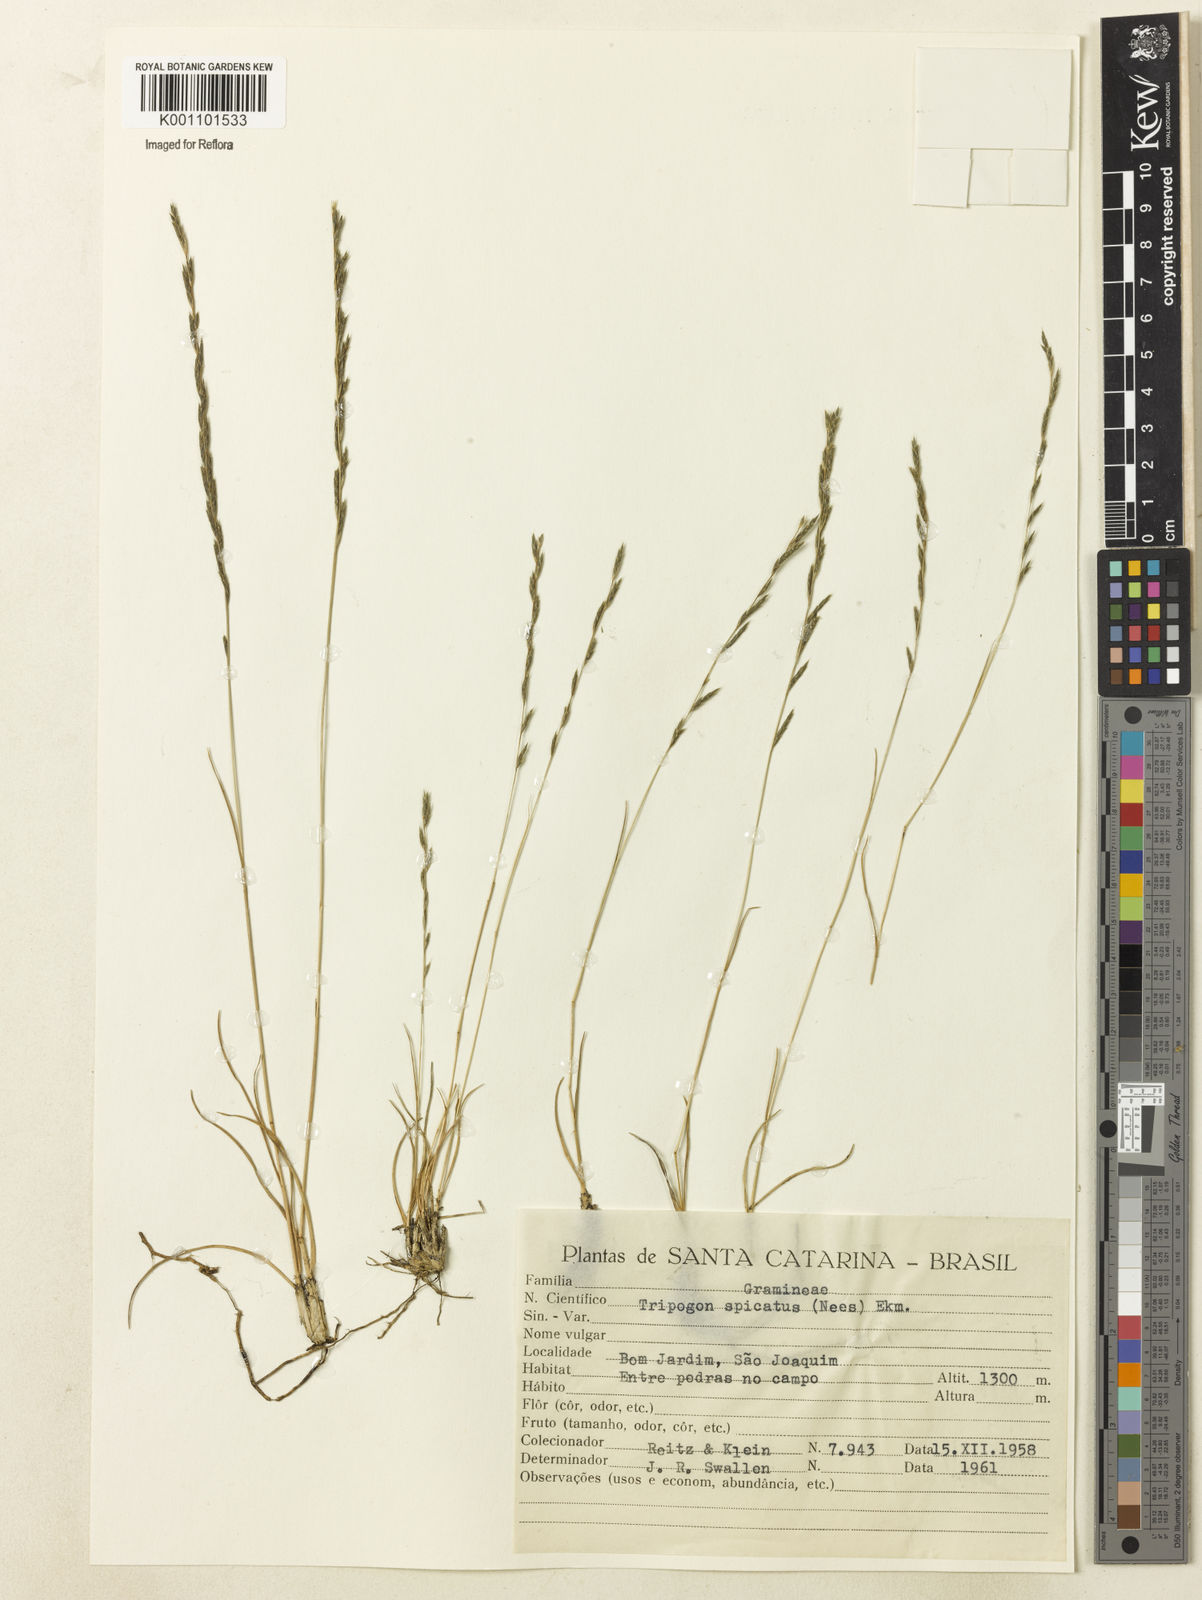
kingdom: Plantae
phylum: Tracheophyta
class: Liliopsida
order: Poales
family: Poaceae
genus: Tripogonella
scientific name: Tripogonella spicata
